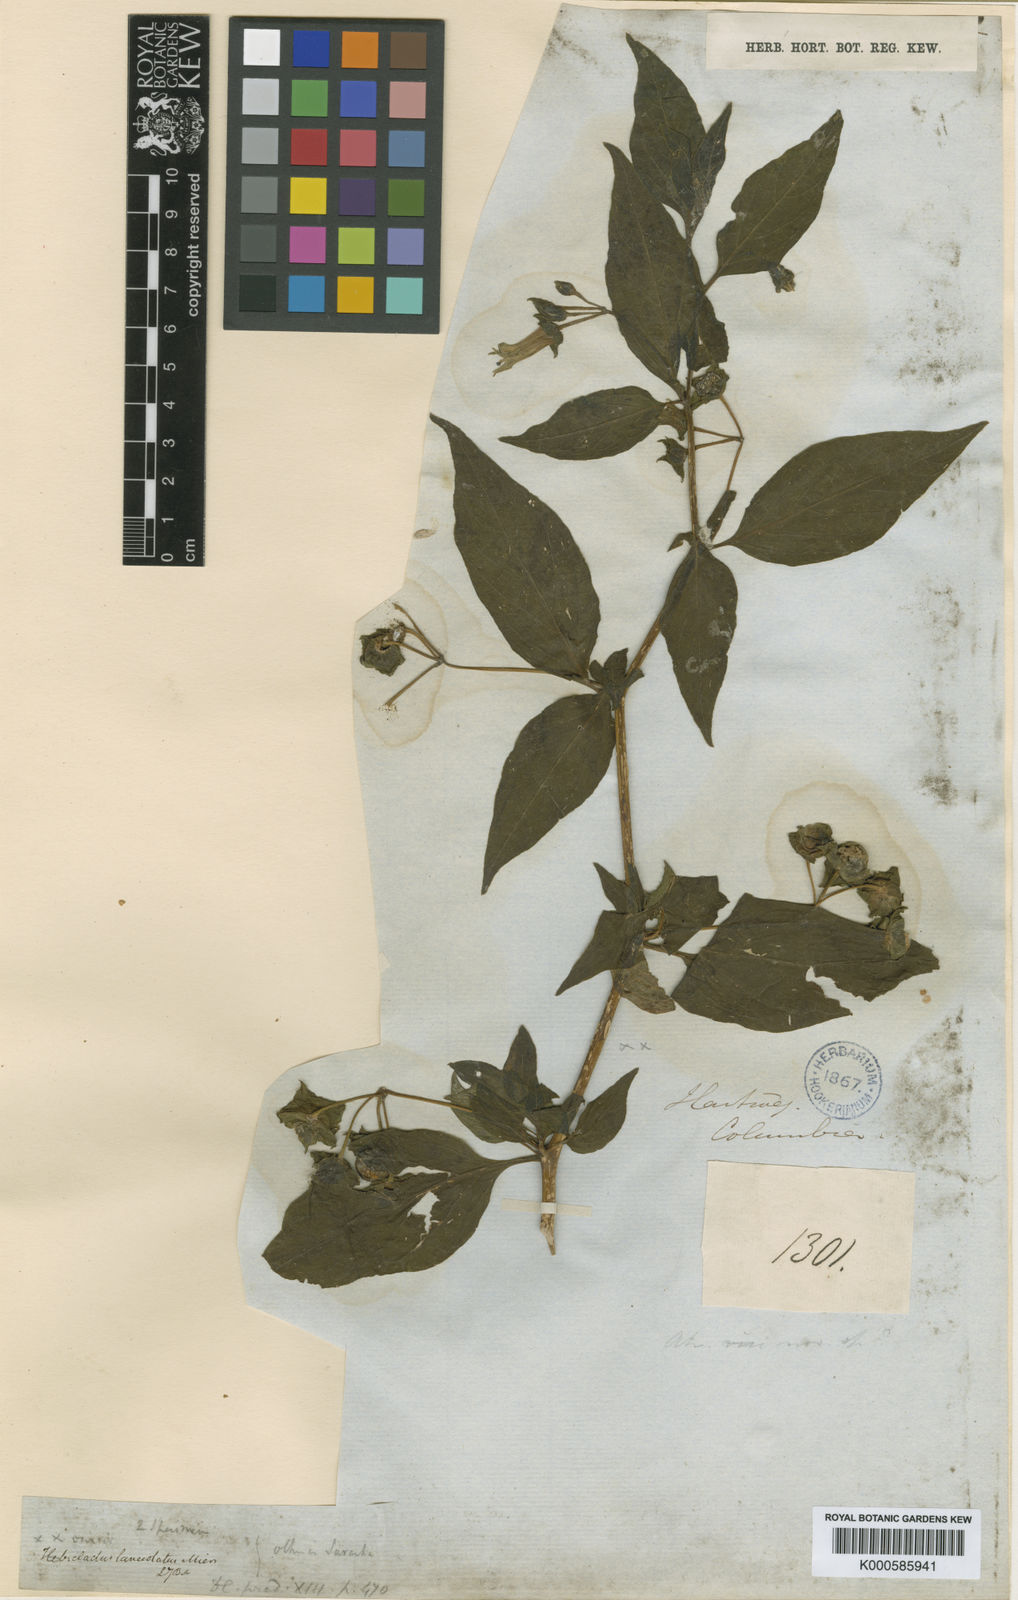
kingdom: Plantae
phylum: Tracheophyta
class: Magnoliopsida
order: Solanales
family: Solanaceae
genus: Jaltomata
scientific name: Jaltomata viridiflora
